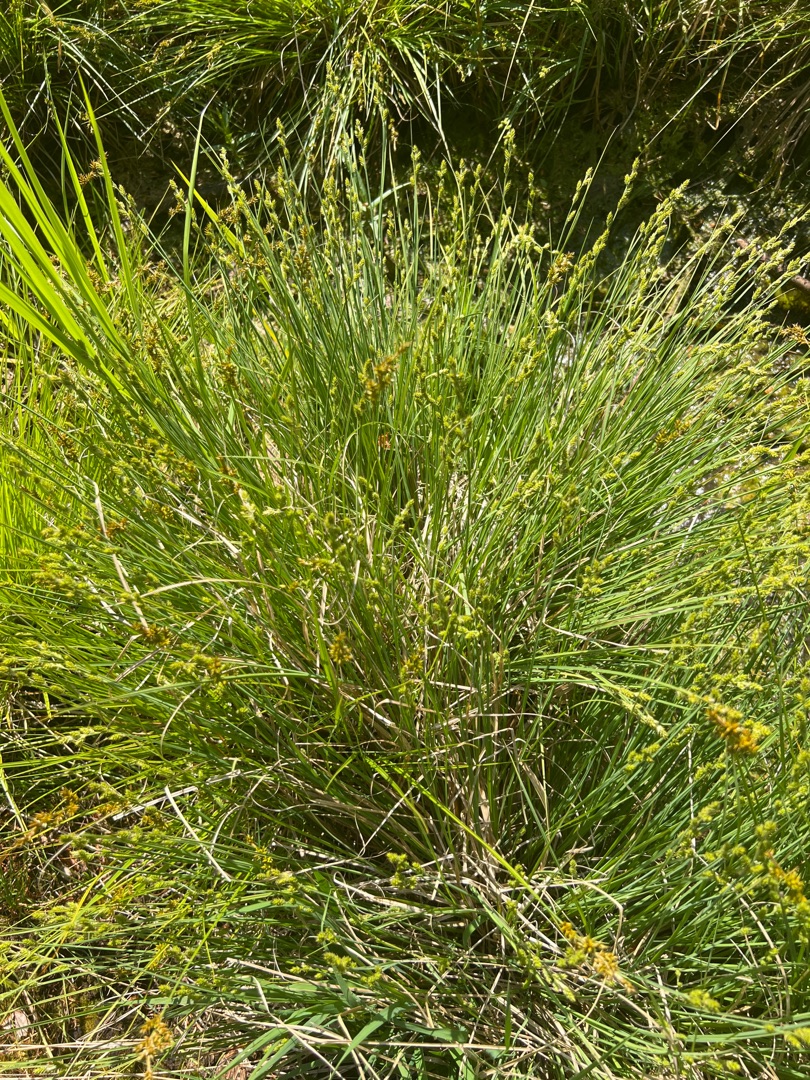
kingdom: Plantae
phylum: Tracheophyta
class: Liliopsida
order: Poales
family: Cyperaceae
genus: Carex
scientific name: Carex canescens
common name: Grå star
